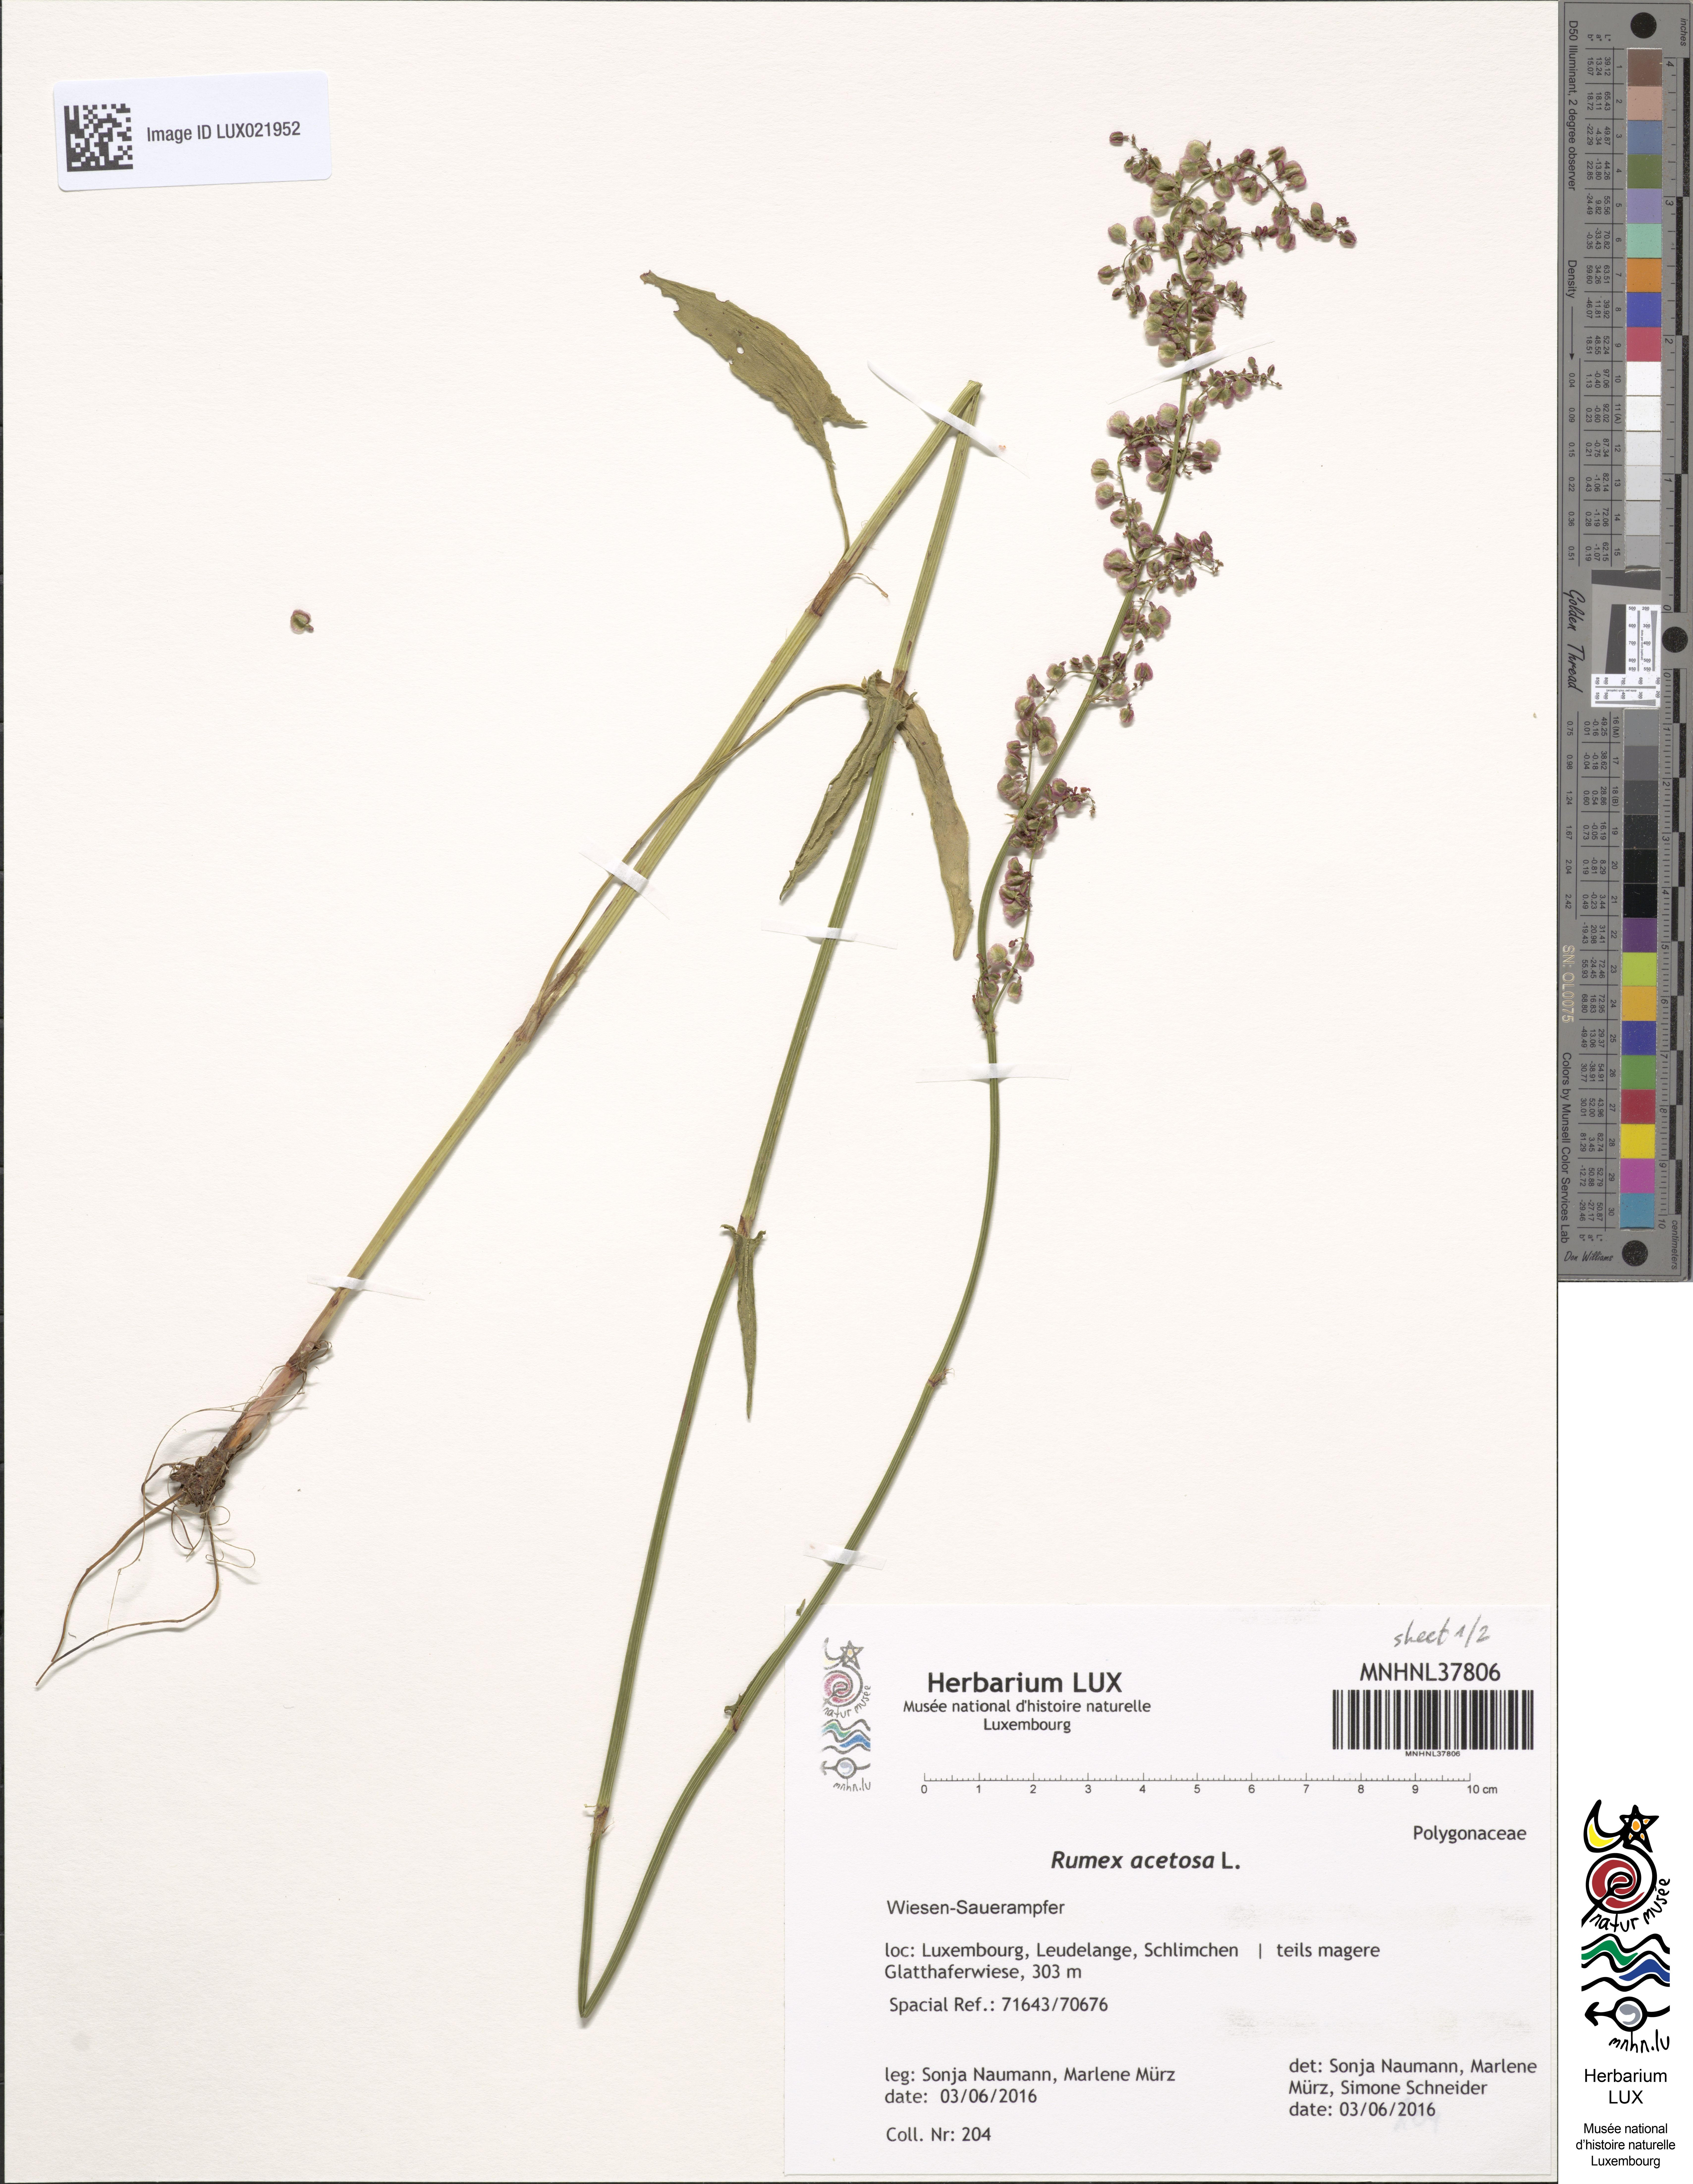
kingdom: Plantae
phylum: Tracheophyta
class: Magnoliopsida
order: Caryophyllales
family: Polygonaceae
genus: Rumex
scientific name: Rumex acetosa
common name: Garden sorrel
